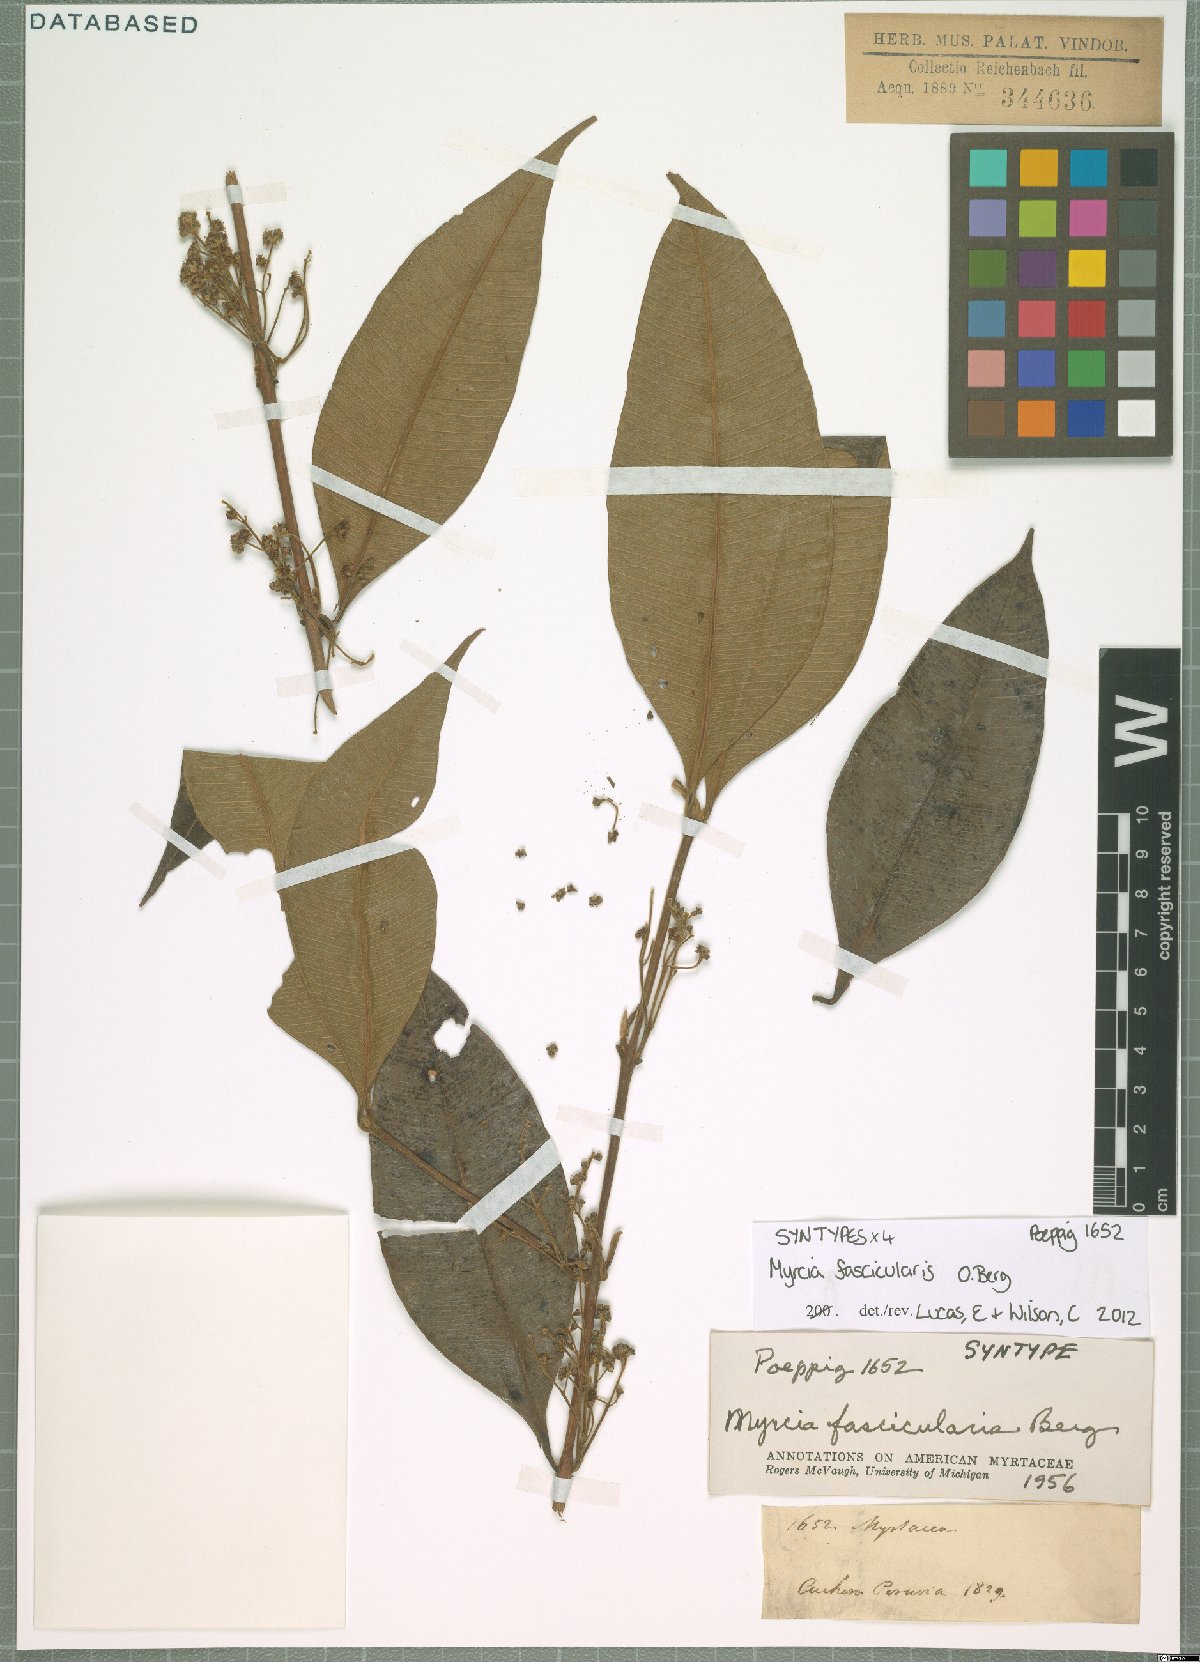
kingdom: Plantae
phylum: Tracheophyta
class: Magnoliopsida
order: Myrtales
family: Myrtaceae
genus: Myrcia
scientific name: Myrcia fascicularis
